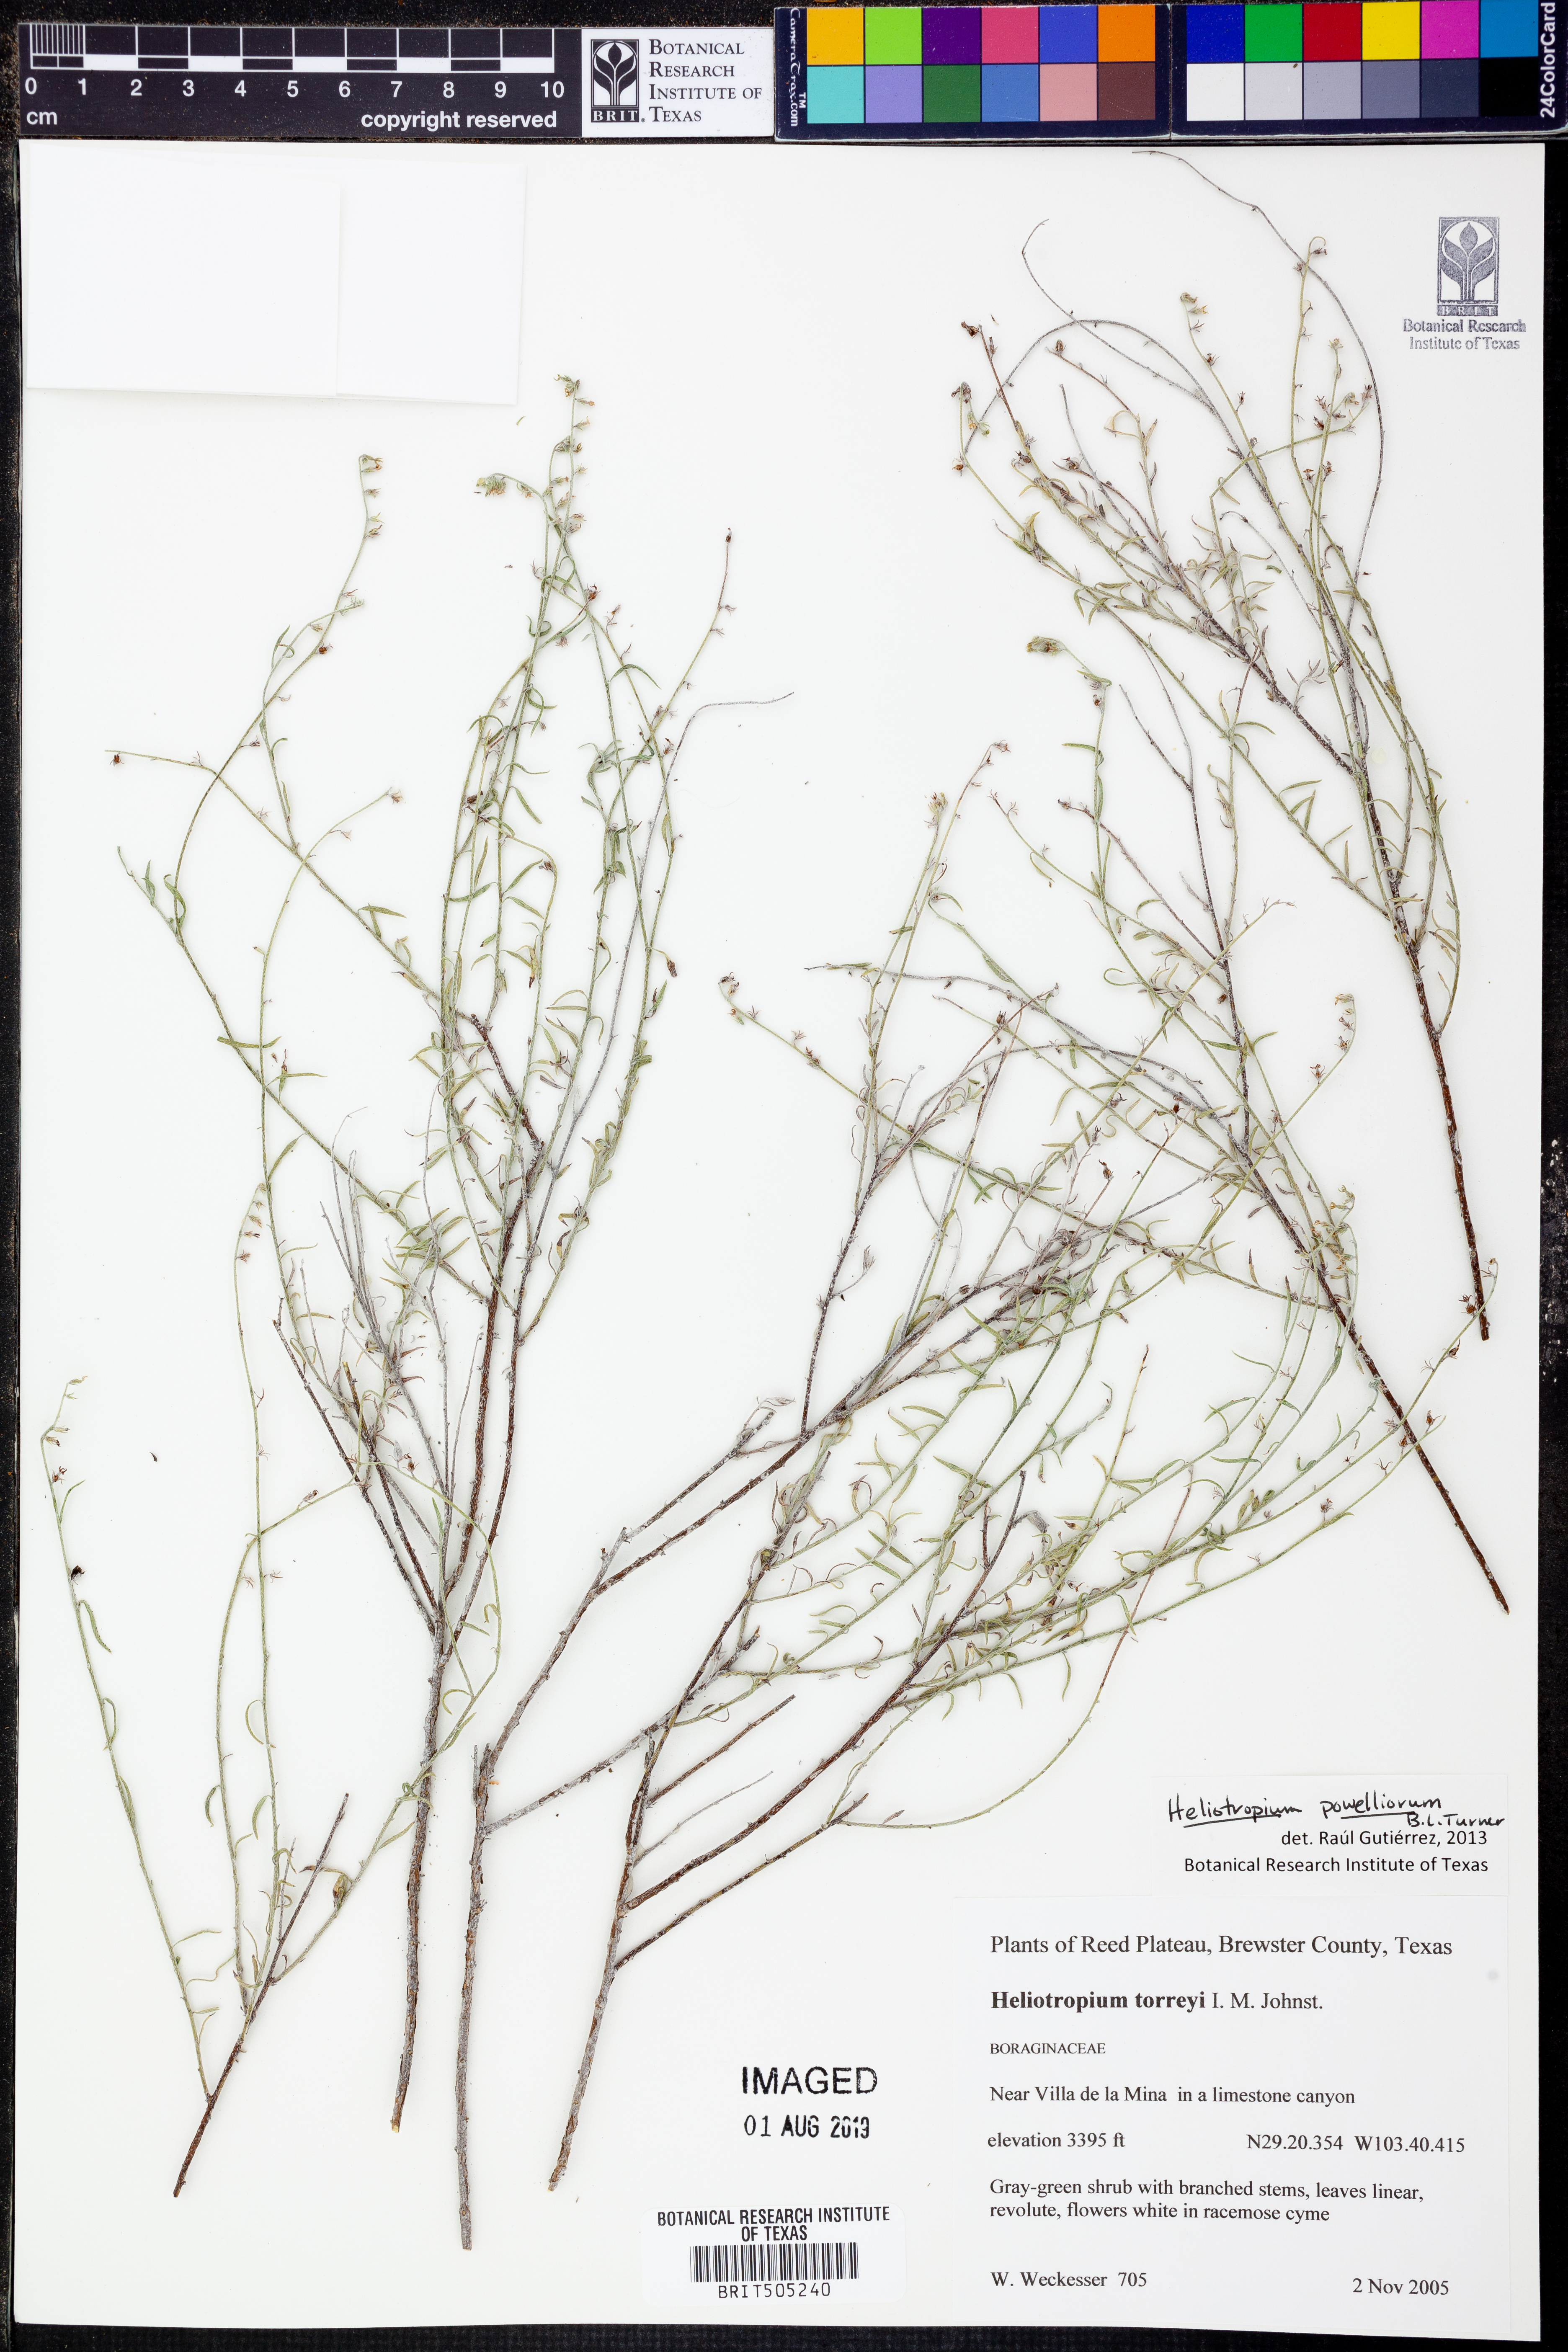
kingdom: Plantae
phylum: Tracheophyta
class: Magnoliopsida
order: Boraginales
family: Heliotropiaceae
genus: Euploca
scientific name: Euploca powelliorum
